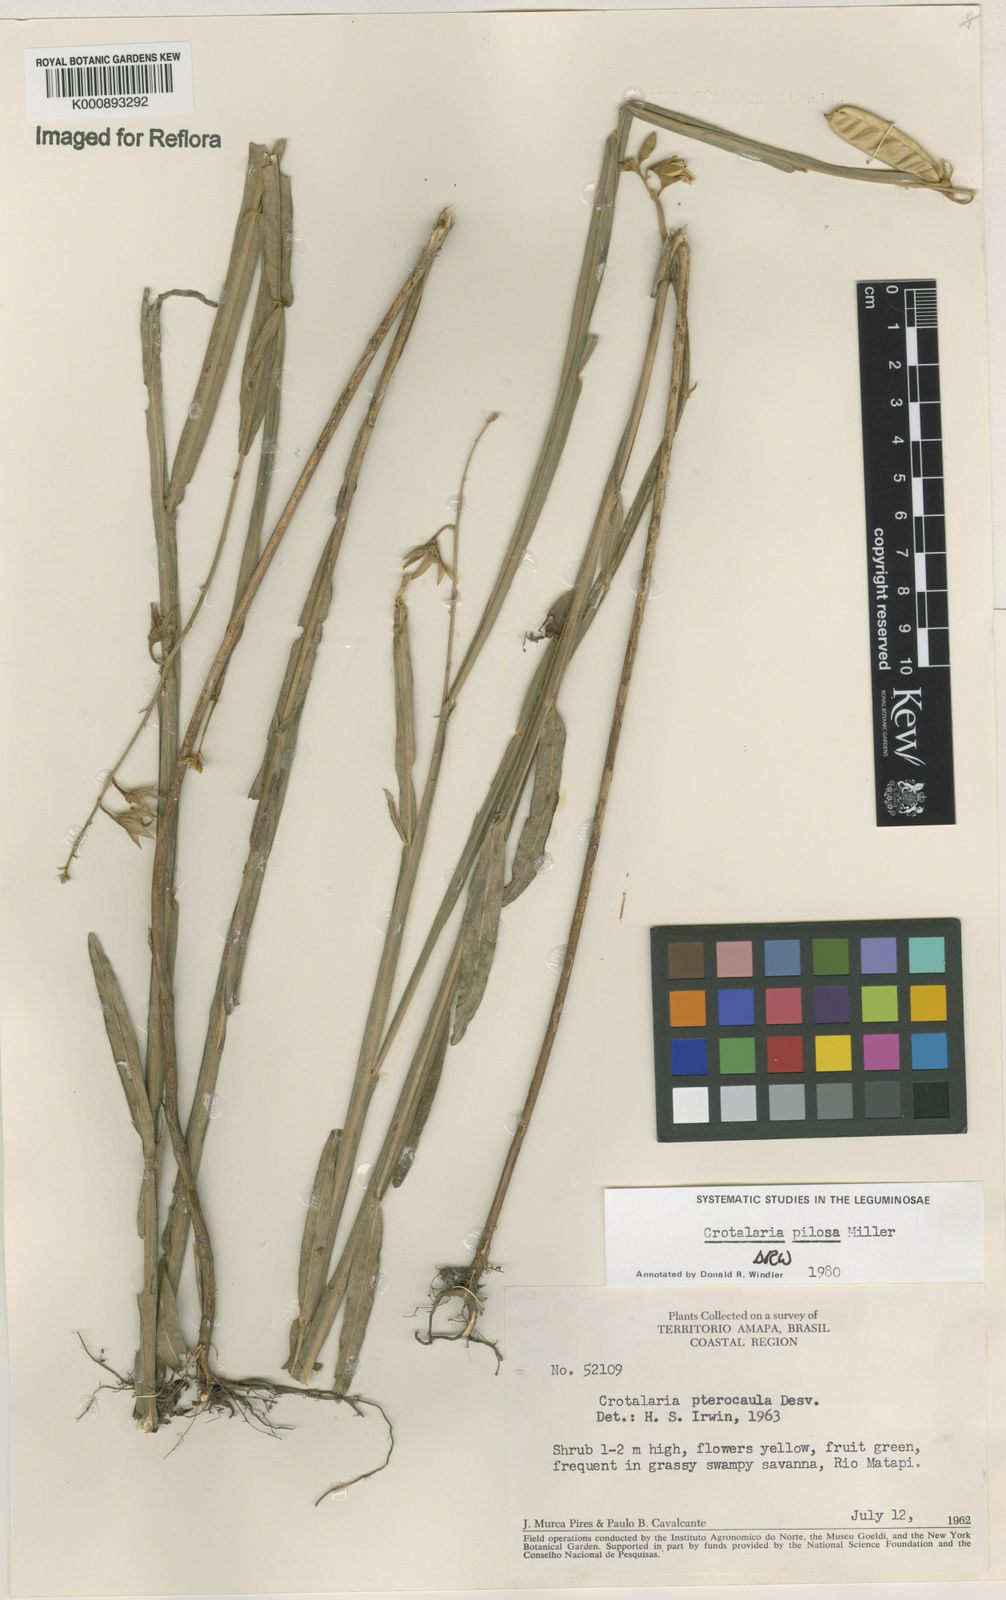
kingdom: Plantae
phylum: Tracheophyta
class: Magnoliopsida
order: Fabales
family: Fabaceae
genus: Crotalaria
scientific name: Crotalaria pilosa
